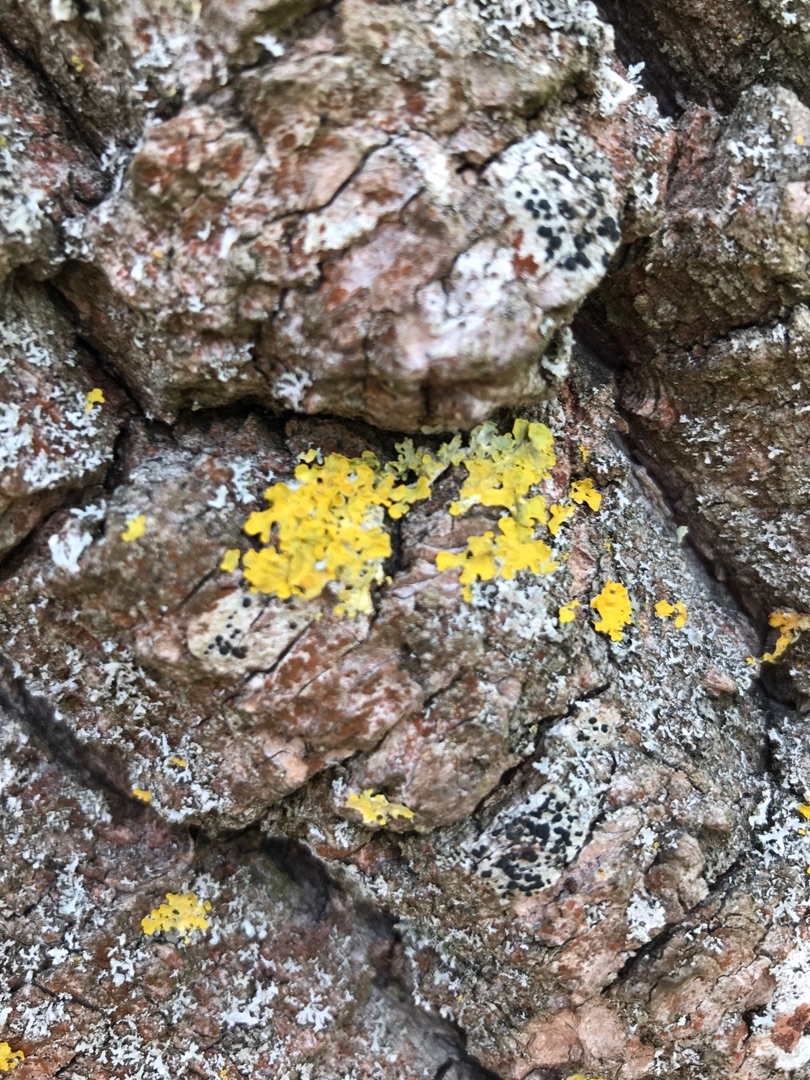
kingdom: Fungi
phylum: Ascomycota
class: Lecanoromycetes
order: Teloschistales
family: Teloschistaceae
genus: Xanthoria
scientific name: Xanthoria parietina
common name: Almindelig væggelav
